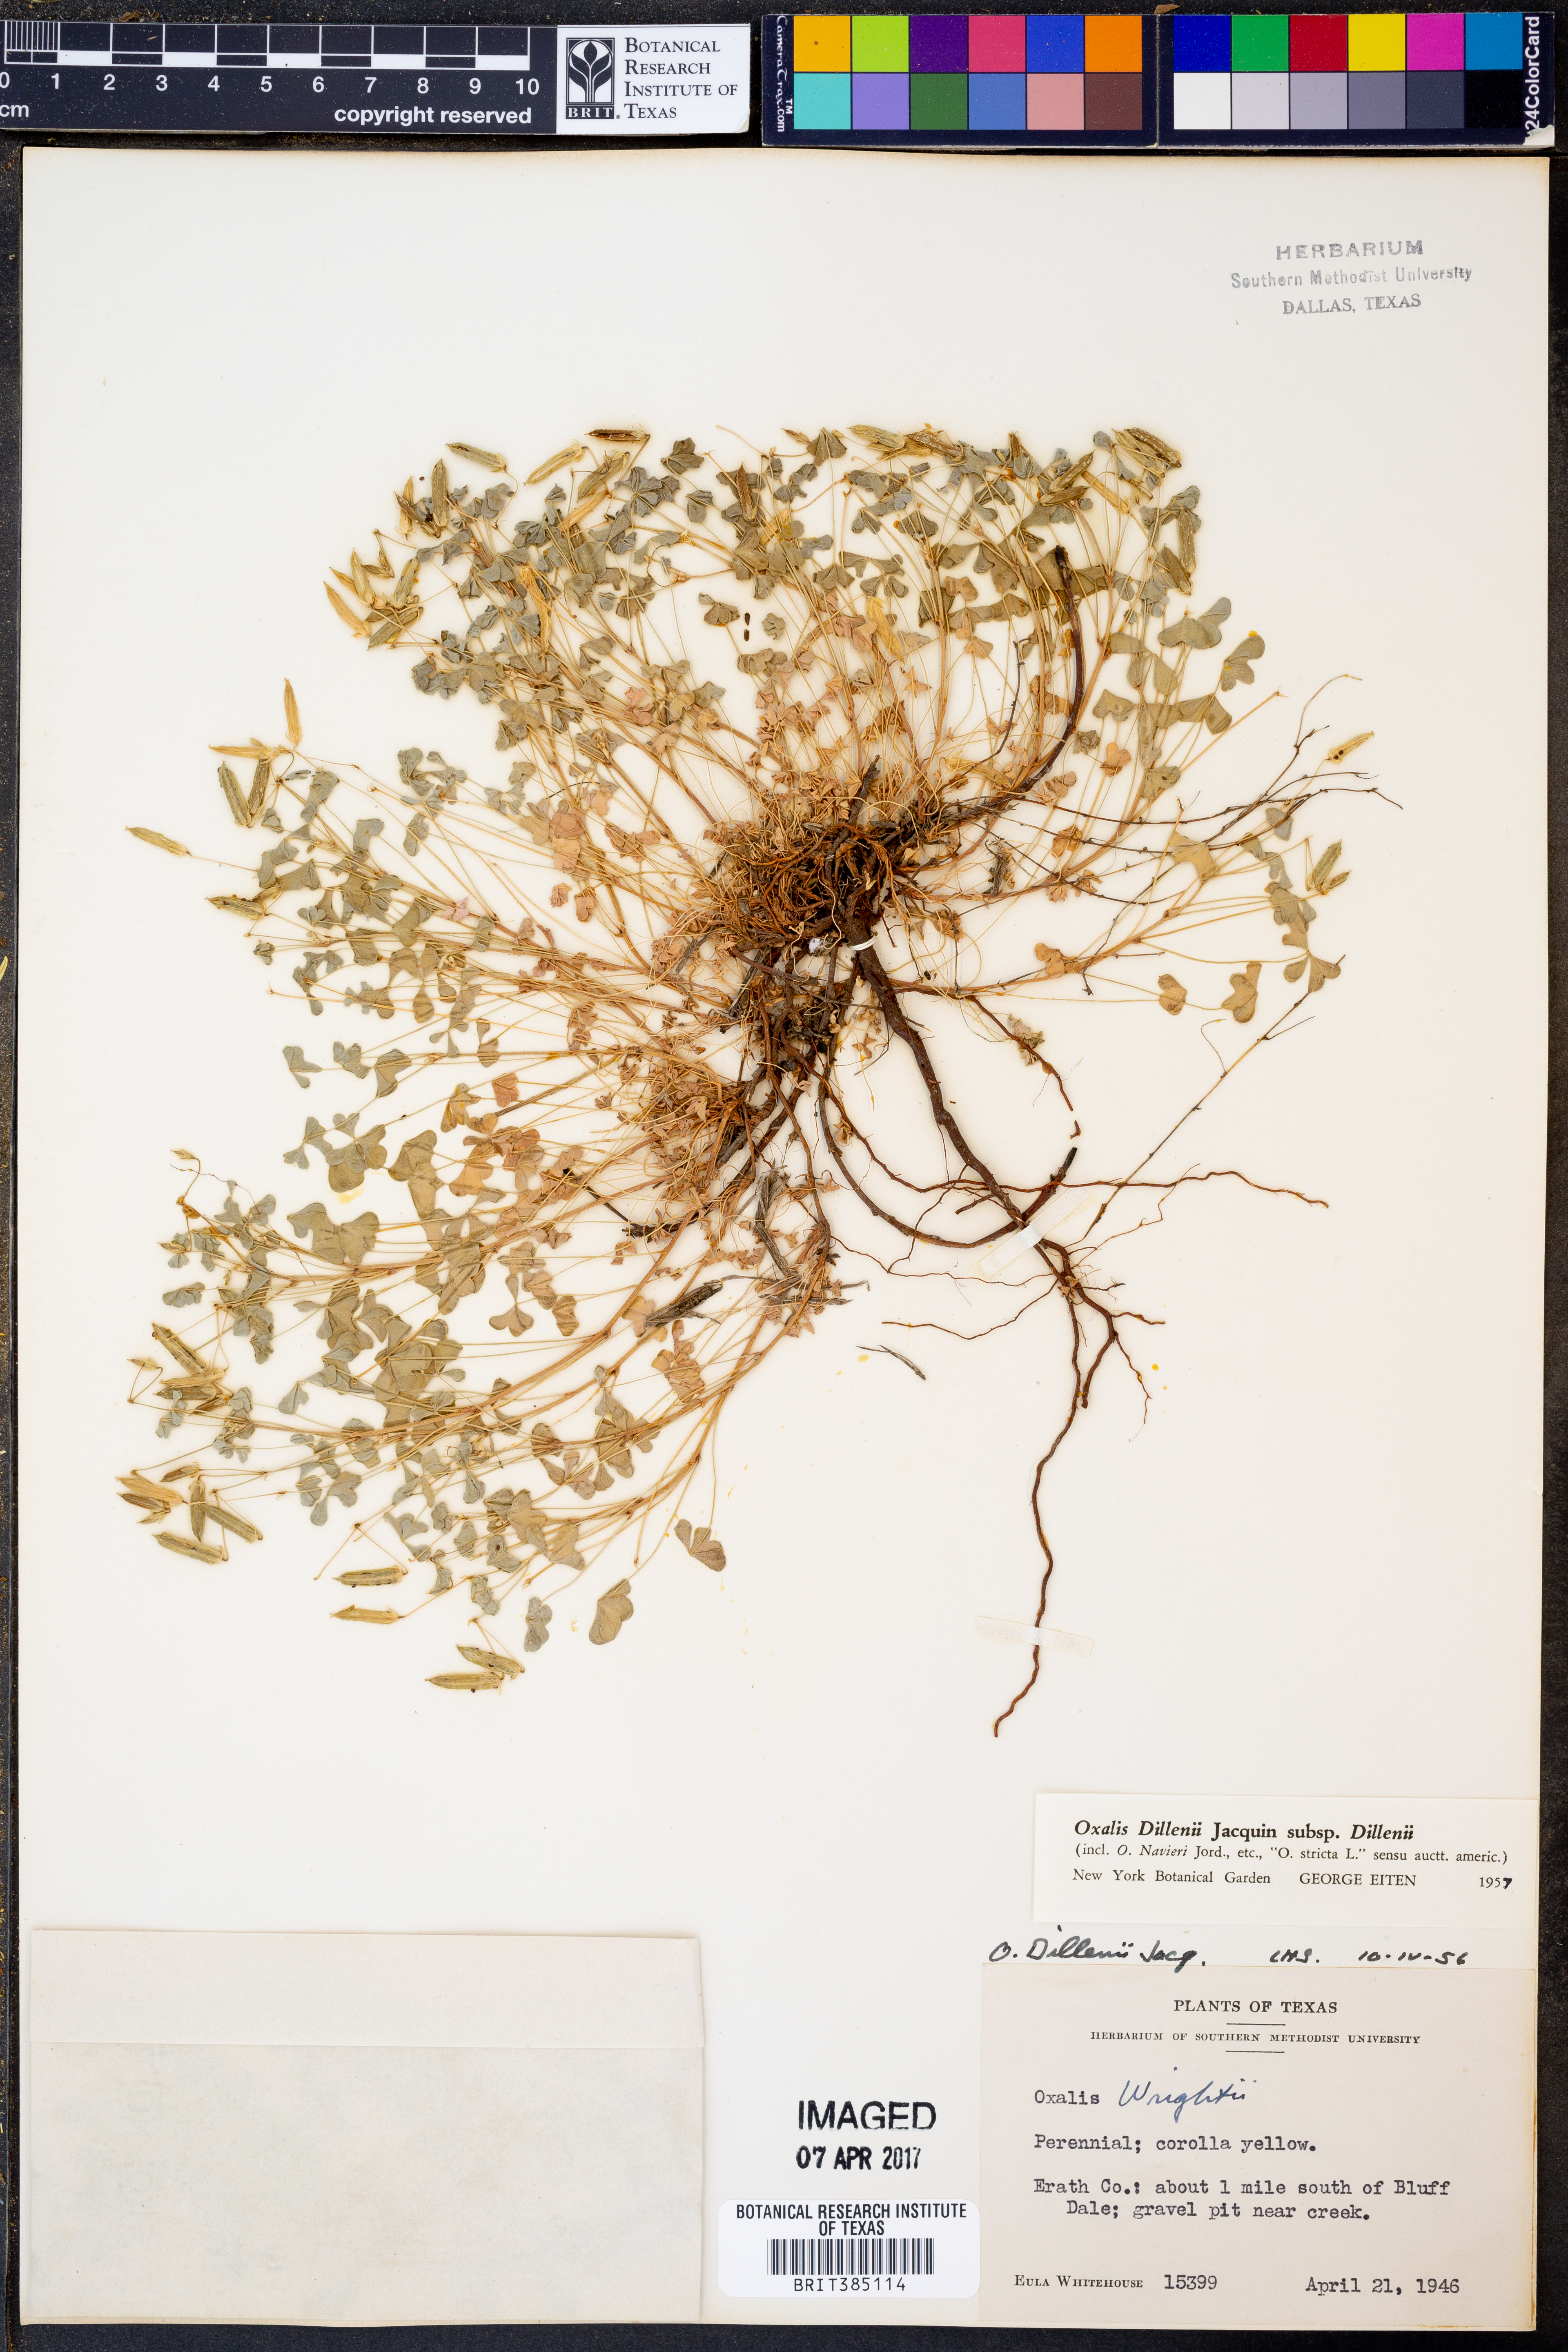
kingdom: Plantae
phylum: Tracheophyta
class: Magnoliopsida
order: Oxalidales
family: Oxalidaceae
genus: Oxalis
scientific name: Oxalis dillenii
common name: Sussex yellow-sorrel
